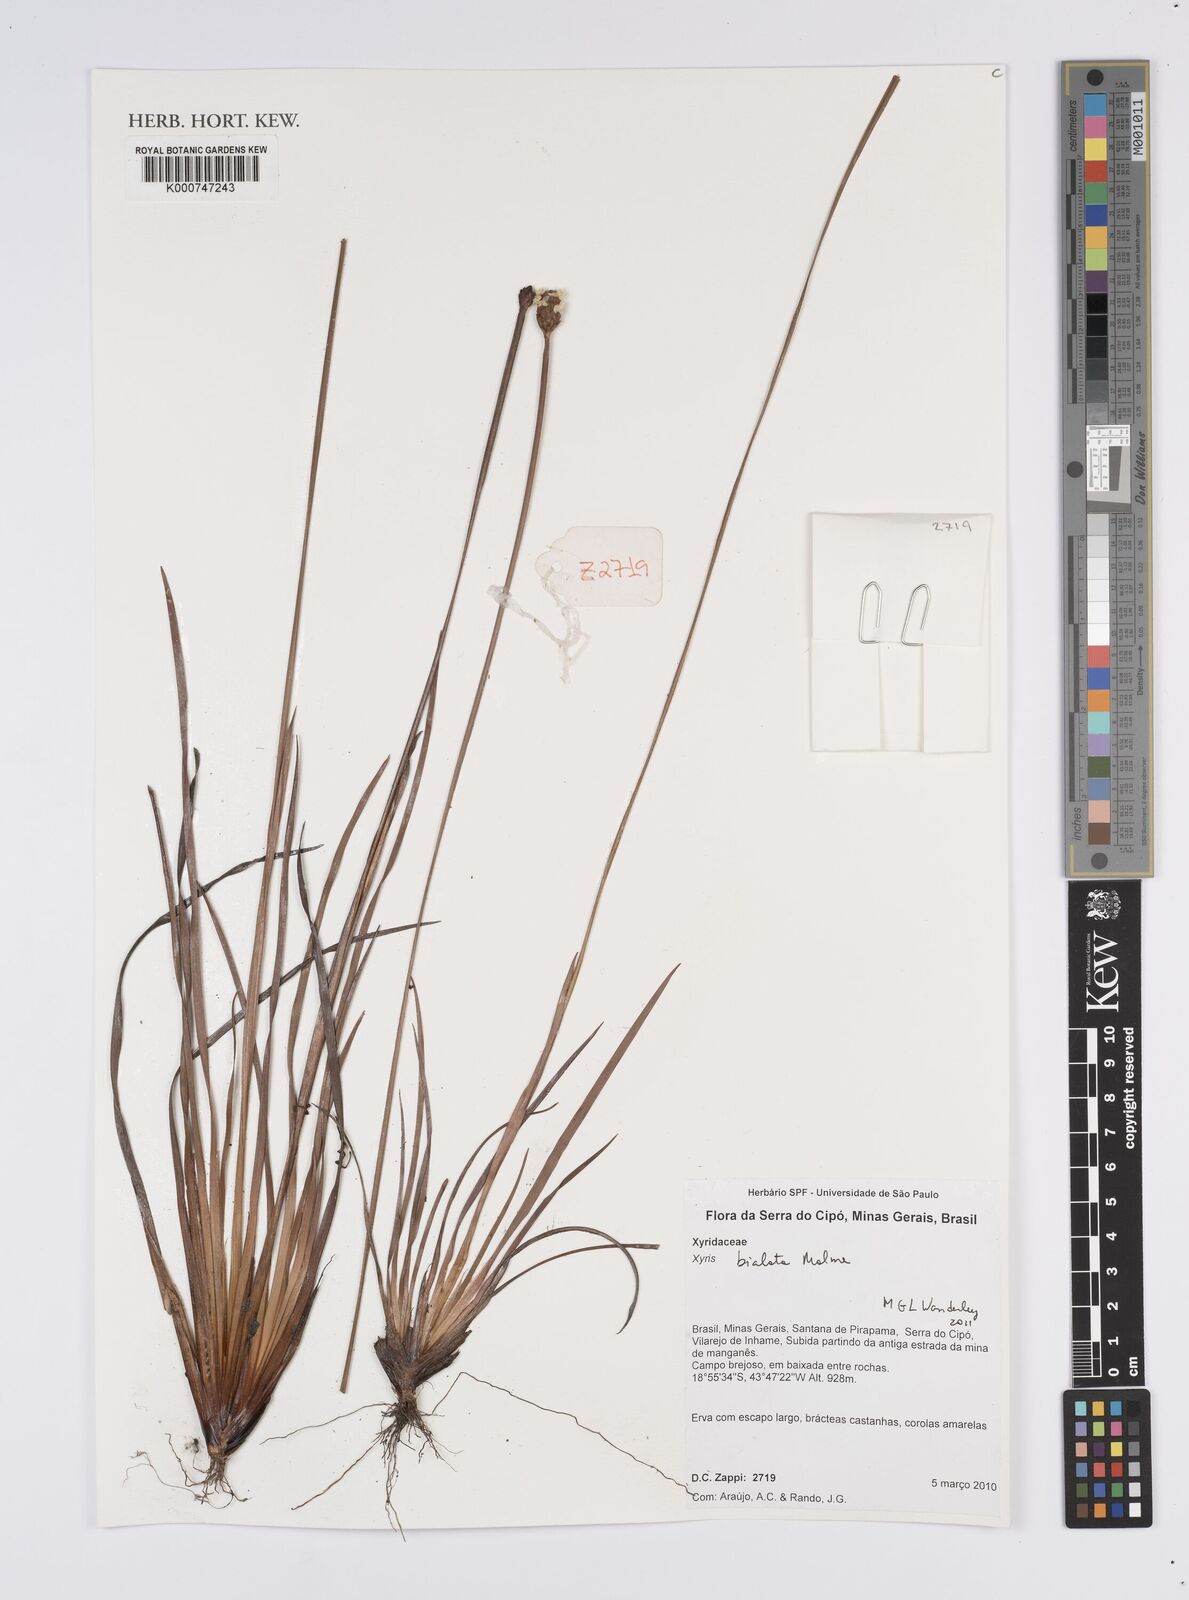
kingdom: Plantae
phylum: Tracheophyta
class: Liliopsida
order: Poales
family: Xyridaceae
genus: Xyris
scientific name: Xyris bialata
